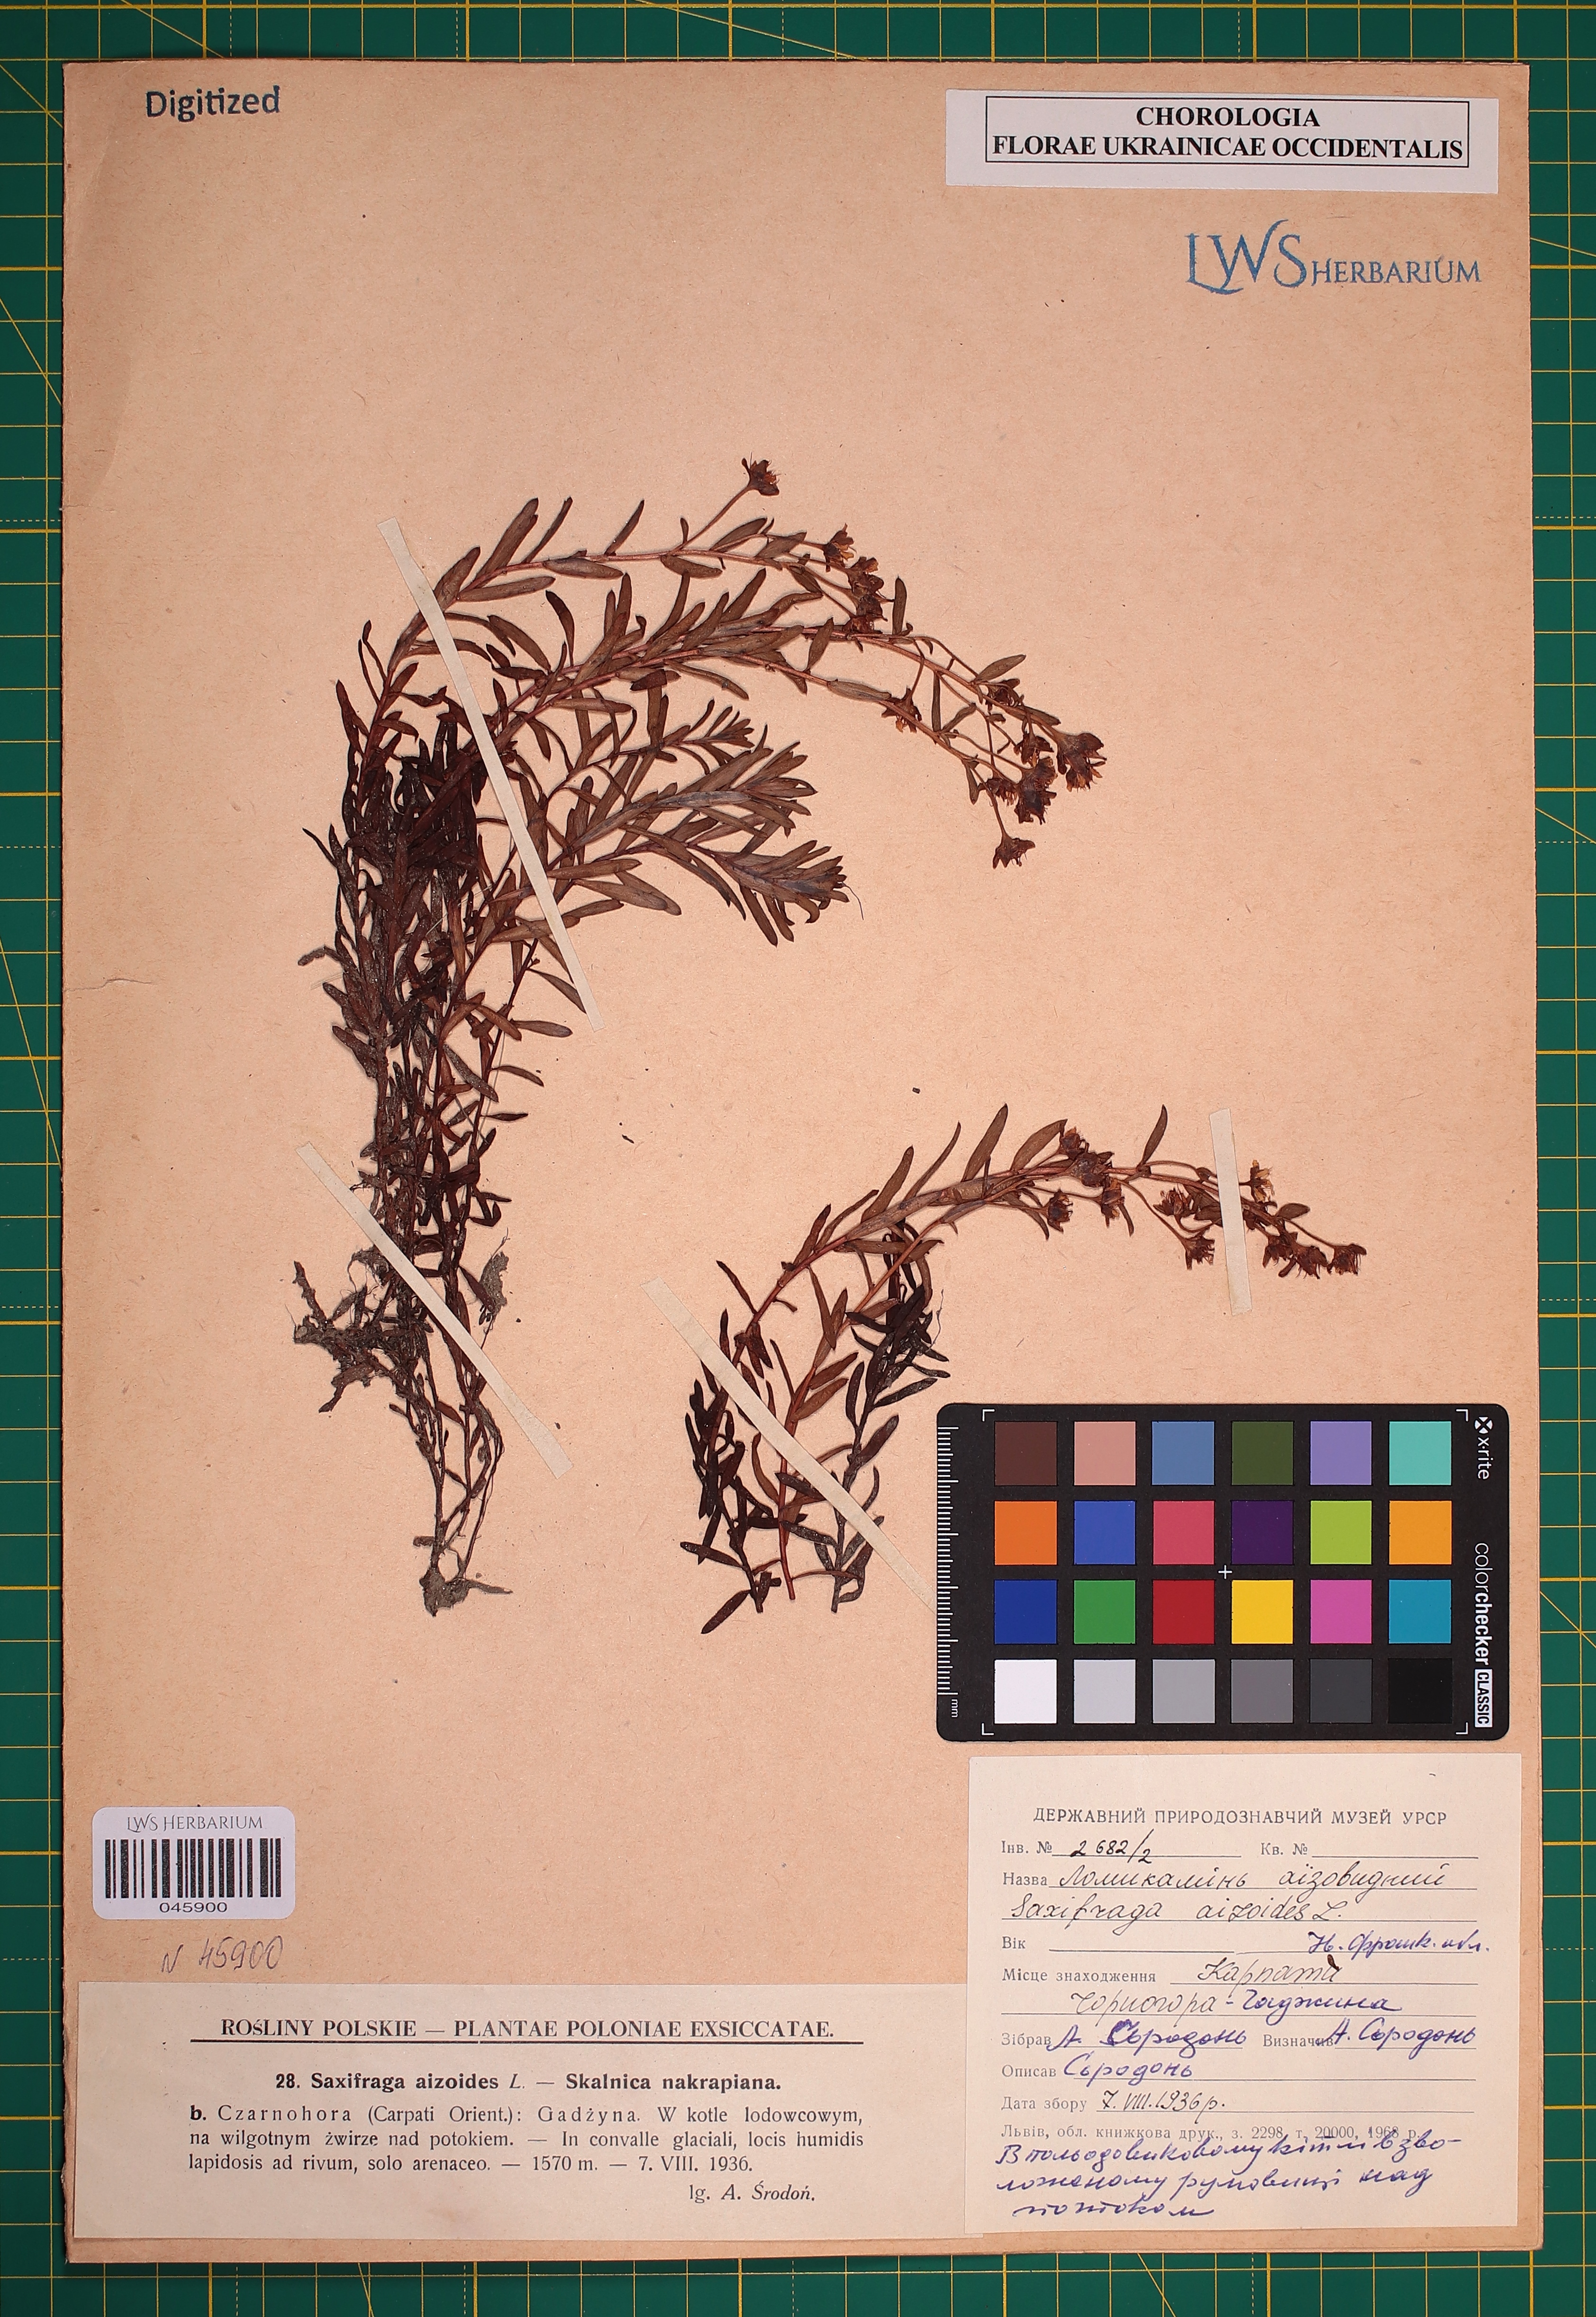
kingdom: Plantae
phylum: Tracheophyta
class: Magnoliopsida
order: Saxifragales
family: Saxifragaceae
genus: Saxifraga
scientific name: Saxifraga aizoides
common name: Yellow mountain saxifrage
